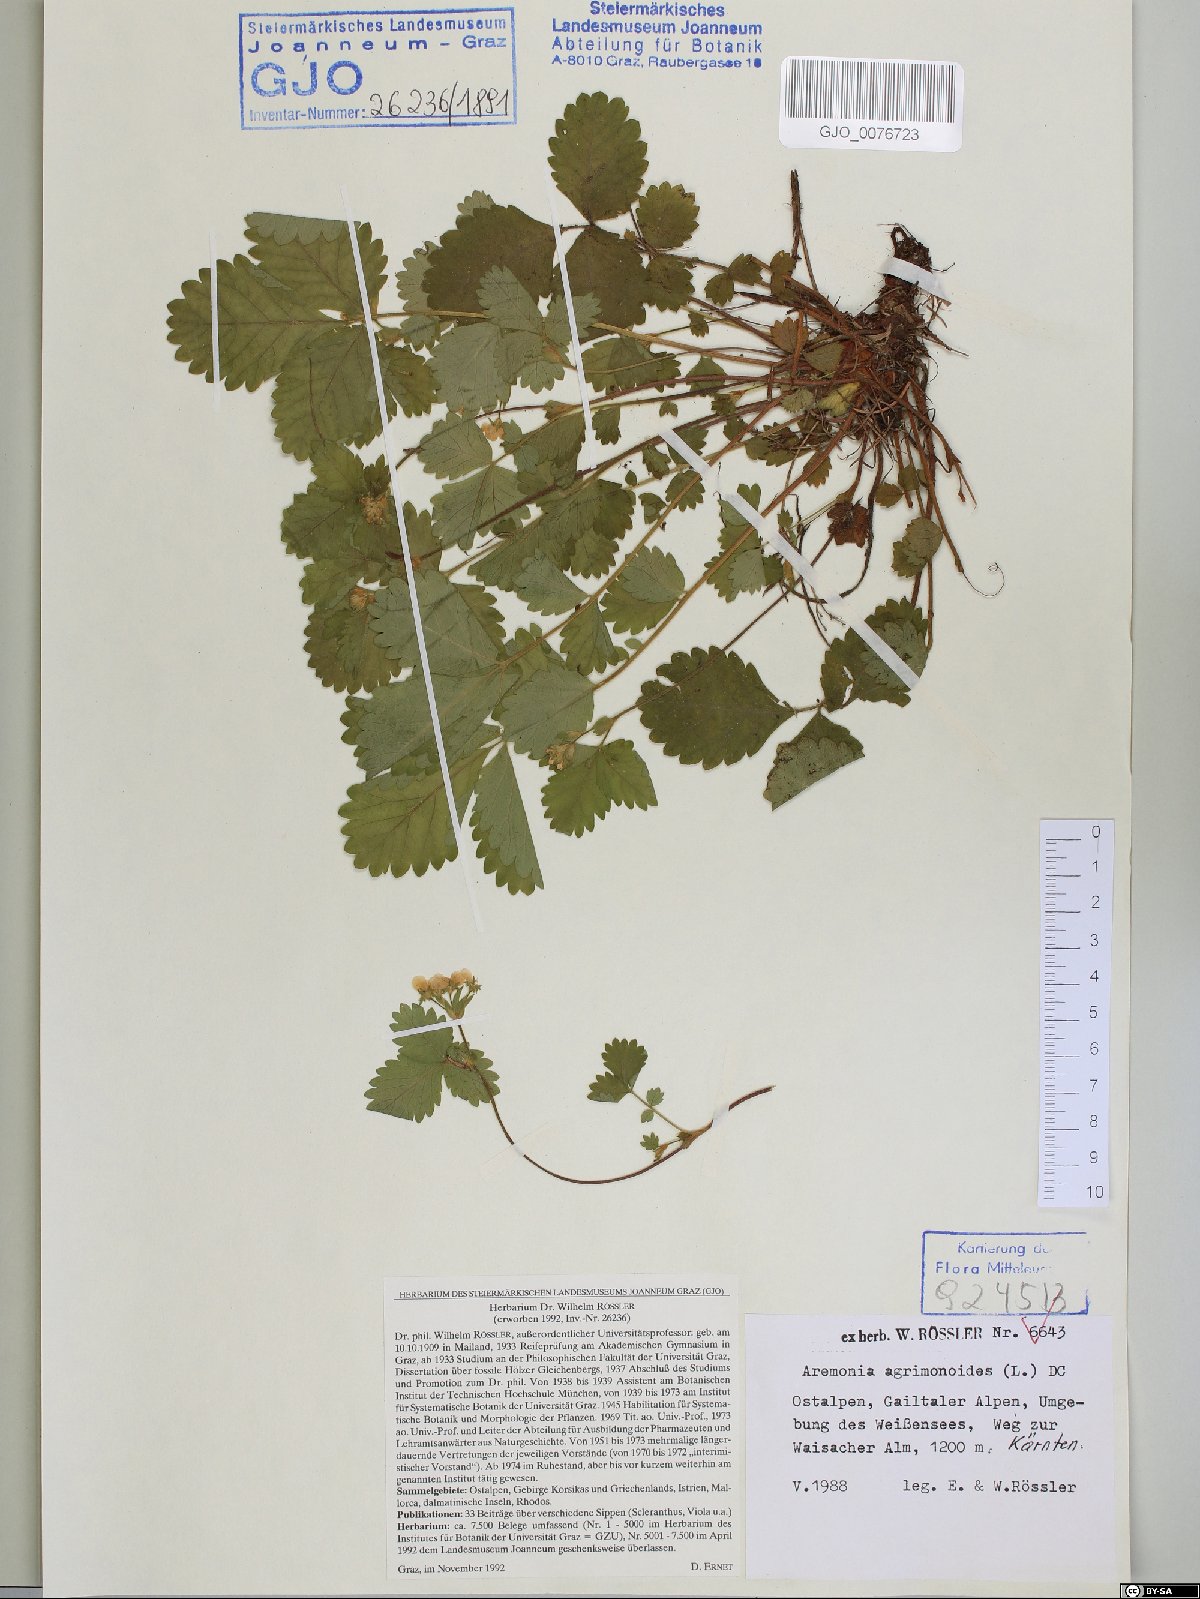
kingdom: Plantae
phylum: Tracheophyta
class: Magnoliopsida
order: Rosales
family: Rosaceae
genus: Aremonia
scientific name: Aremonia agrimonoides
